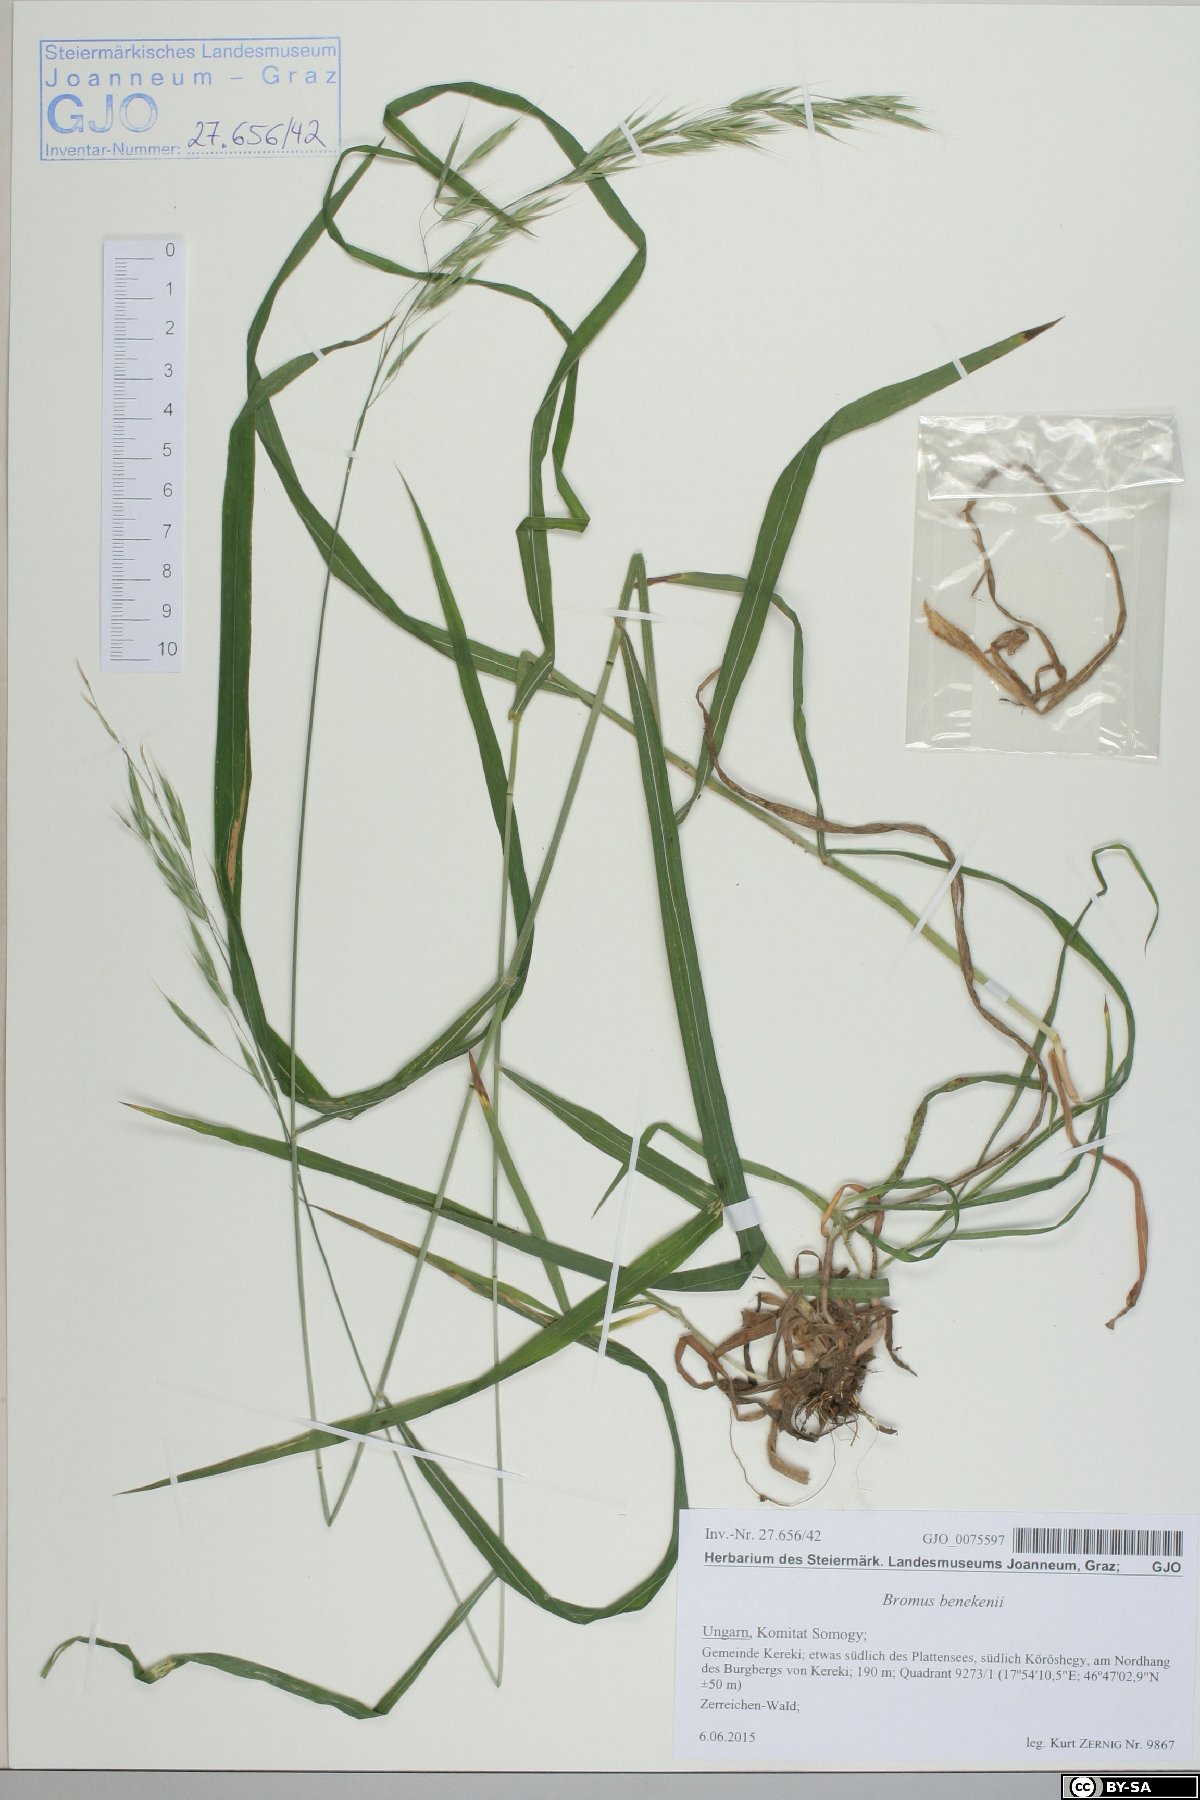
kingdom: Plantae
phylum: Tracheophyta
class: Liliopsida
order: Poales
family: Poaceae
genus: Bromus
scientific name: Bromus benekenii
